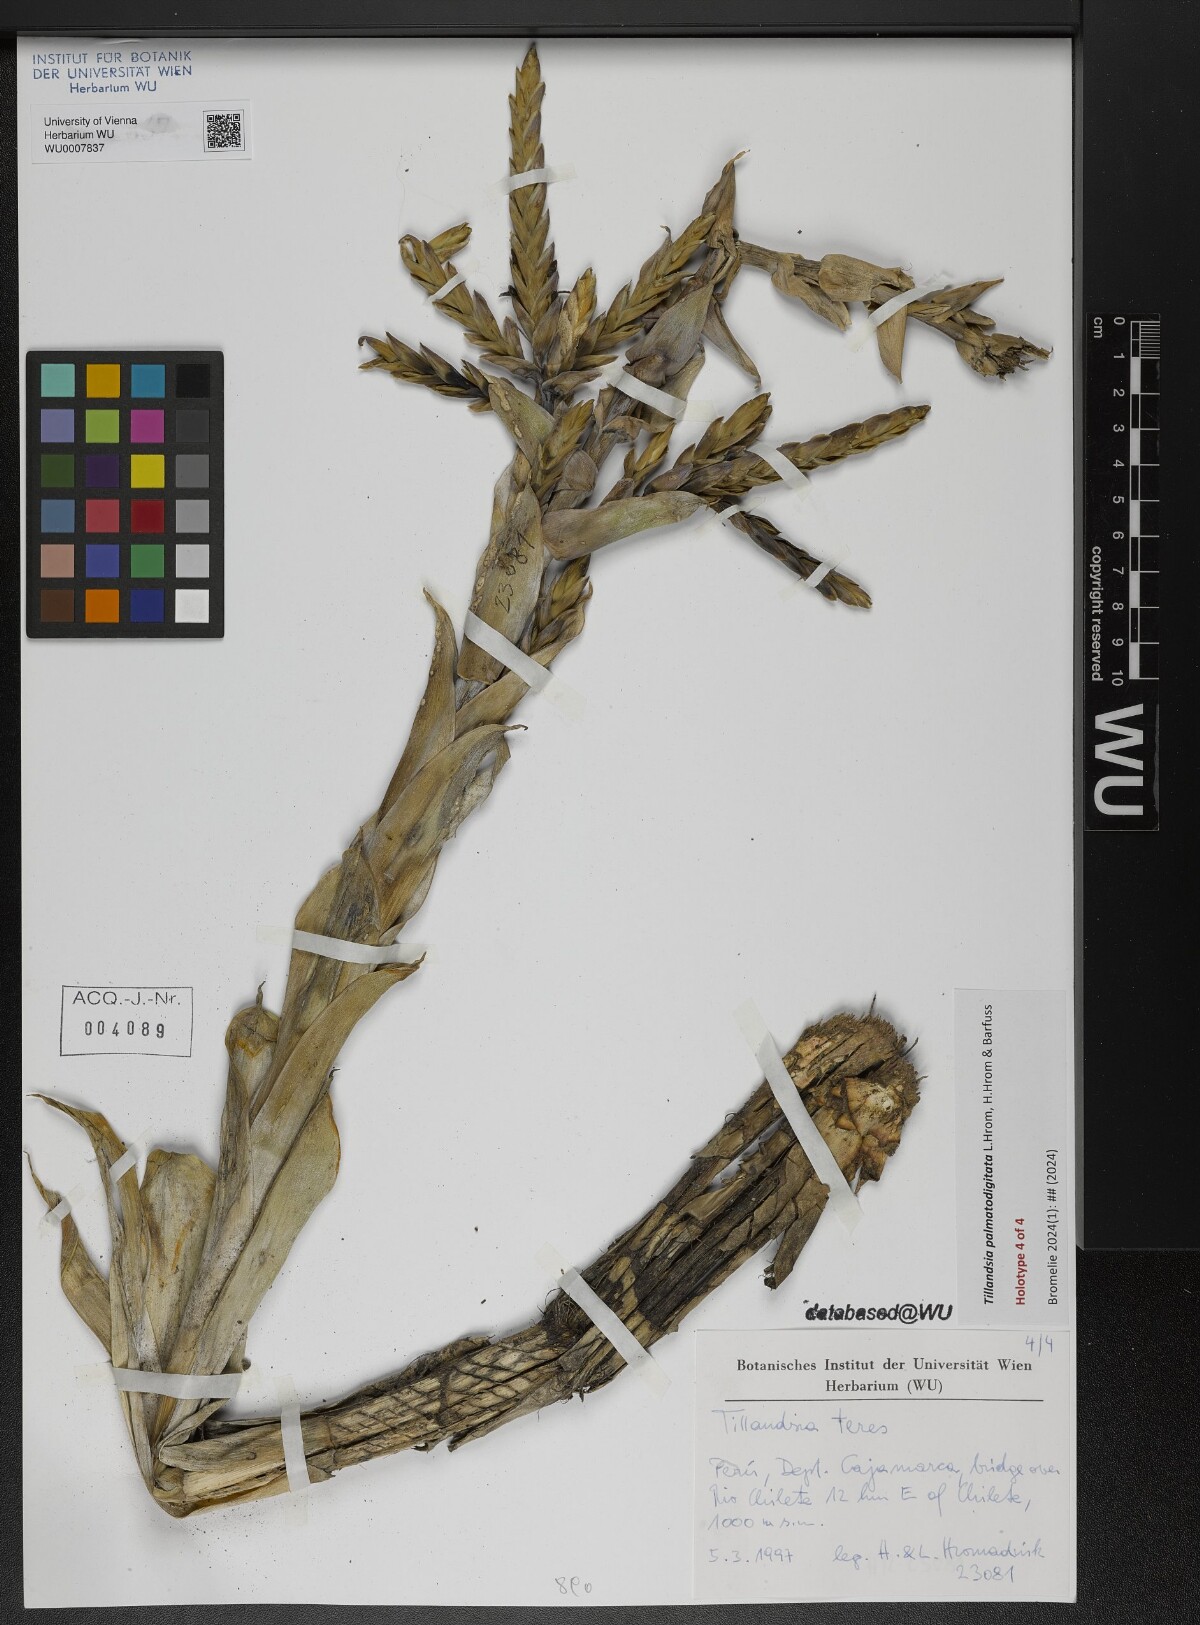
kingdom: Plantae
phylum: Tracheophyta
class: Liliopsida
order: Poales
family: Bromeliaceae
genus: Tillandsia
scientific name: Tillandsia
